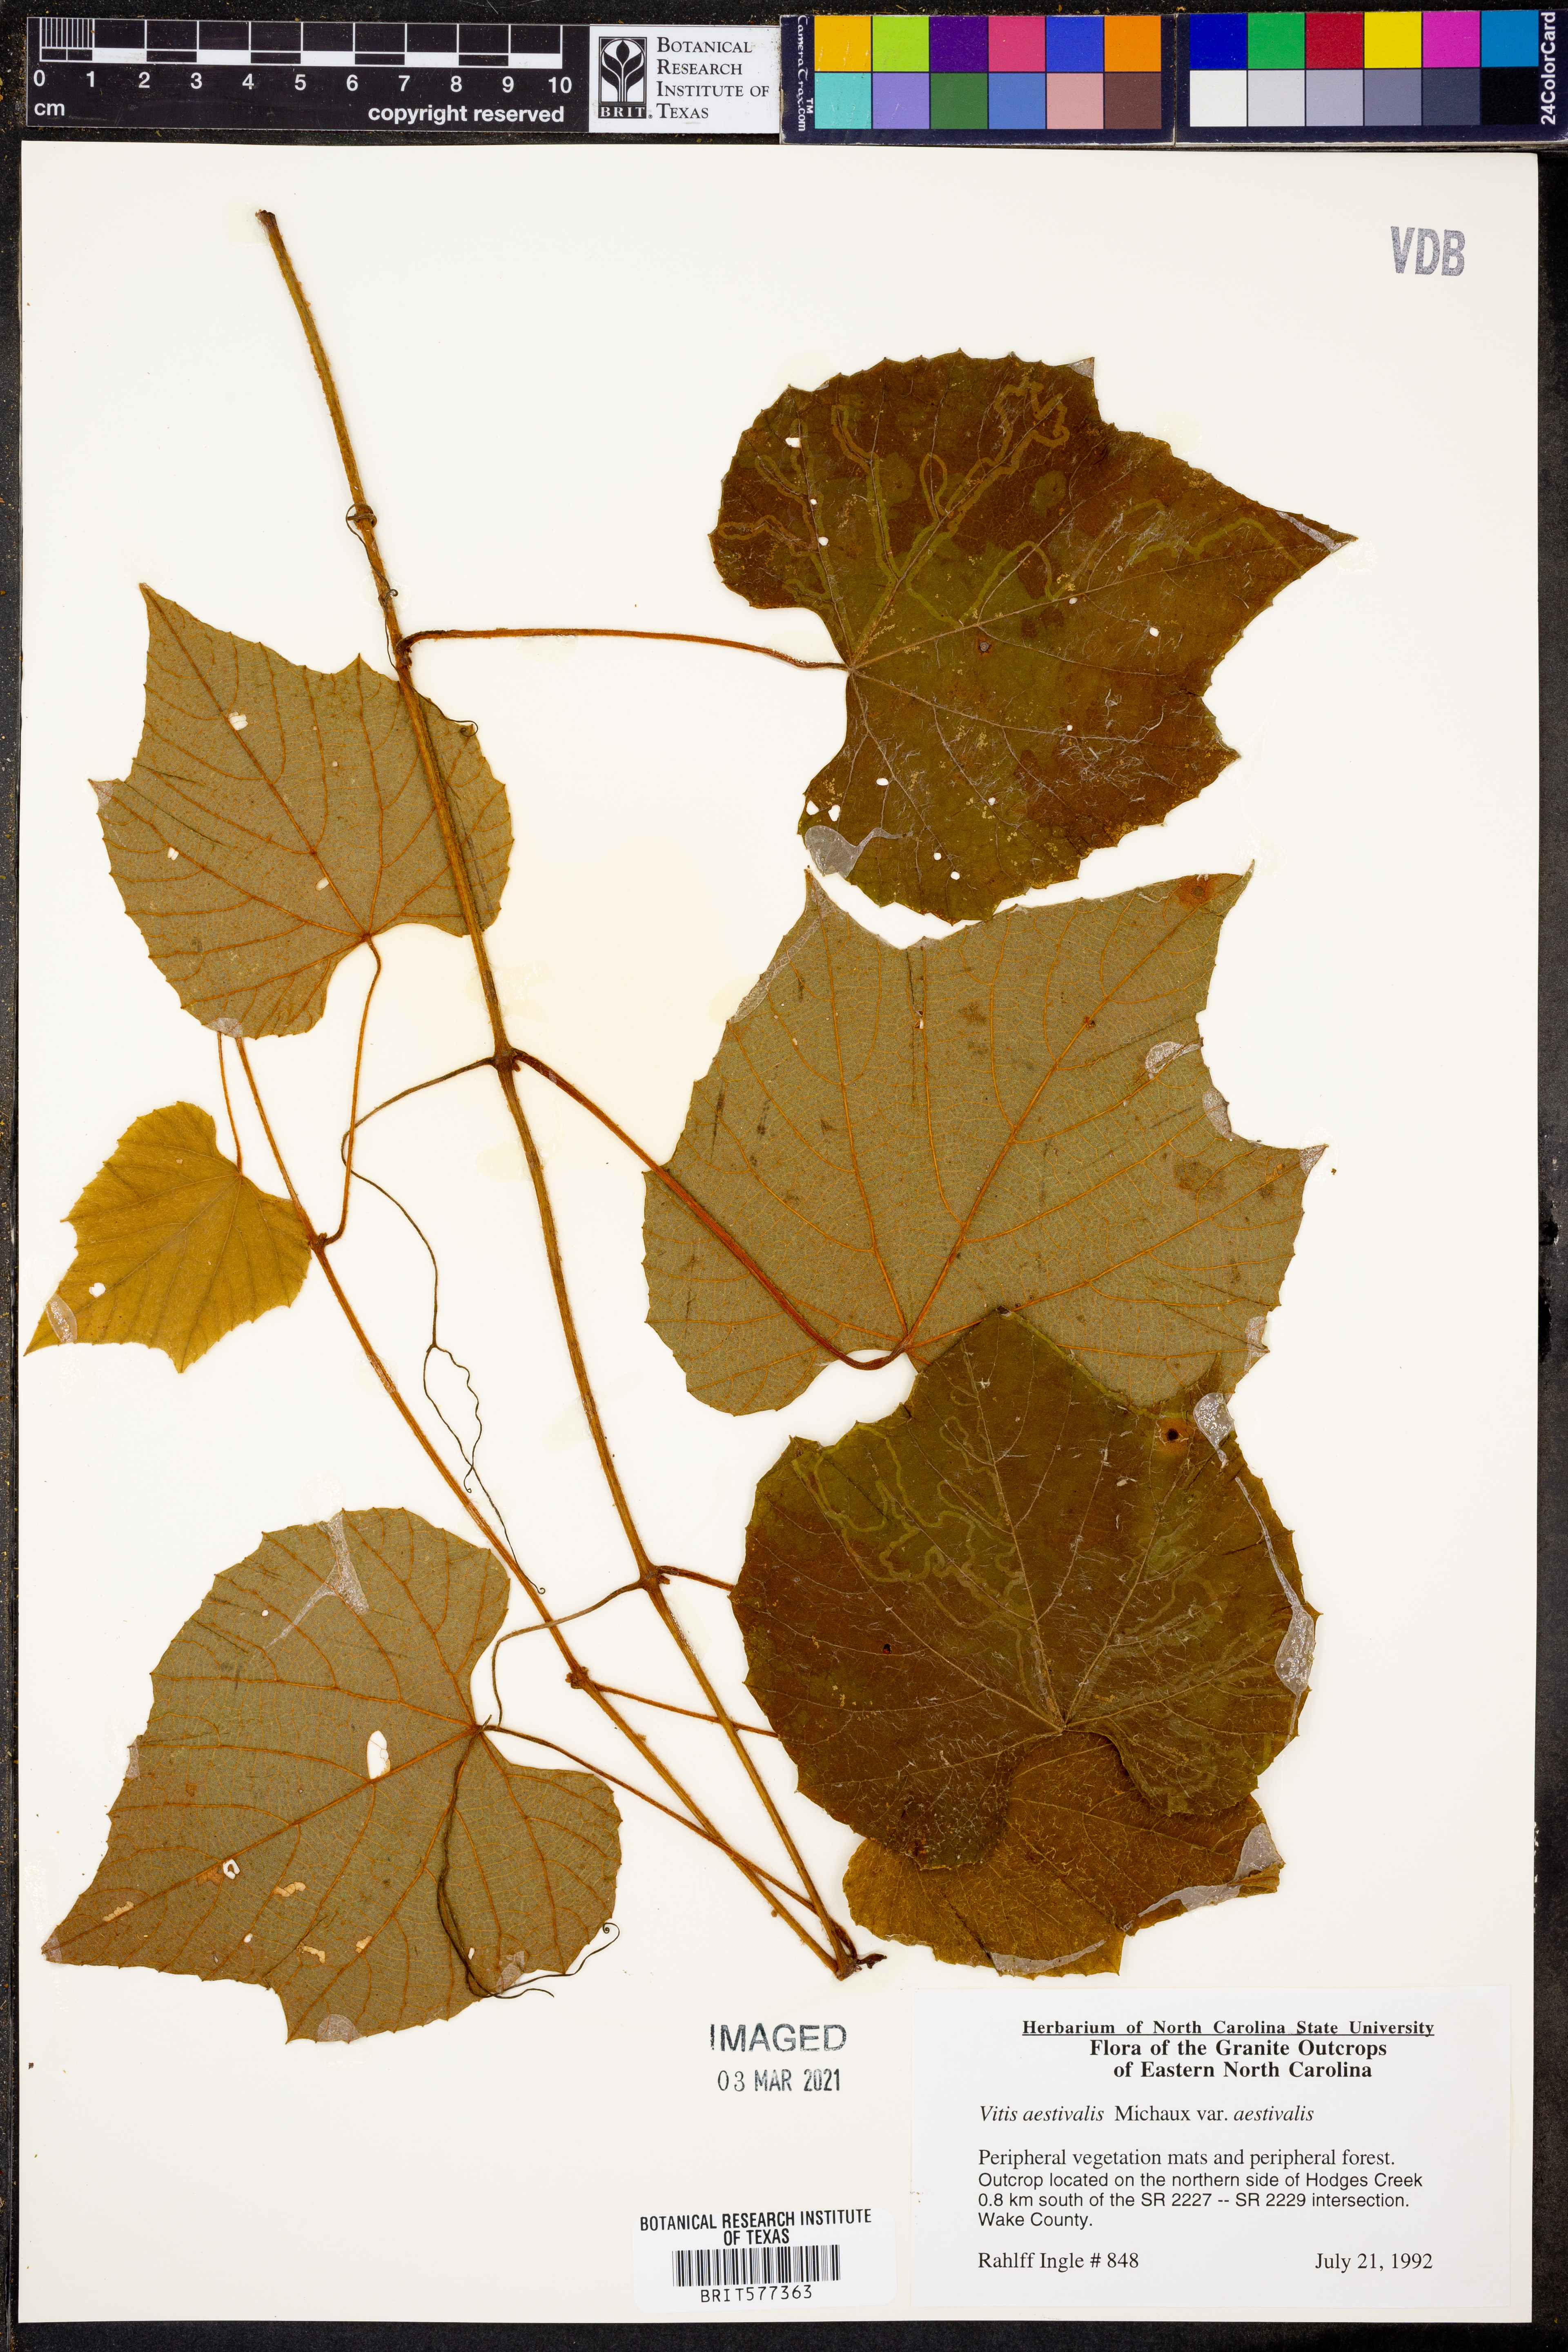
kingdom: Plantae
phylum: Tracheophyta
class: Magnoliopsida
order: Vitales
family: Vitaceae
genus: Vitis
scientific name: Vitis aestivalis
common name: Pigeon grape
